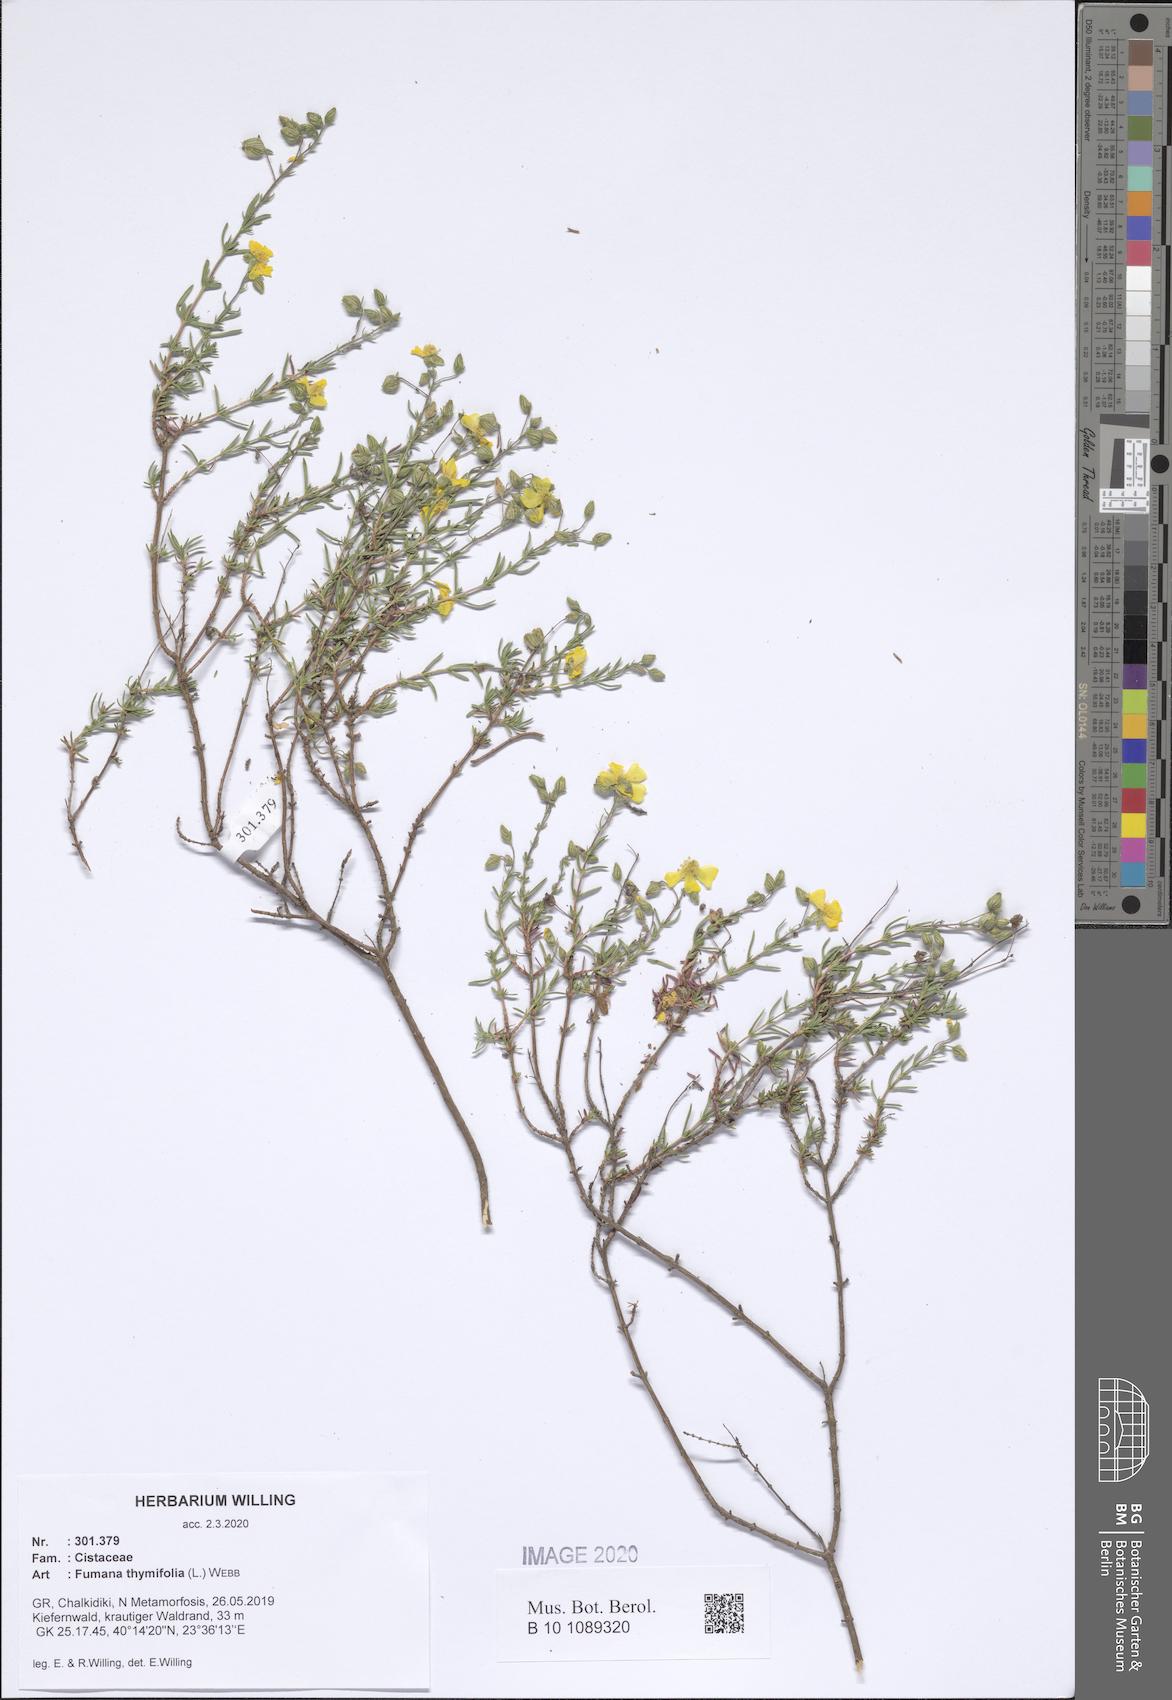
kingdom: Plantae
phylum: Tracheophyta
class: Magnoliopsida
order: Malvales
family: Cistaceae
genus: Fumana
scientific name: Fumana thymifolia
